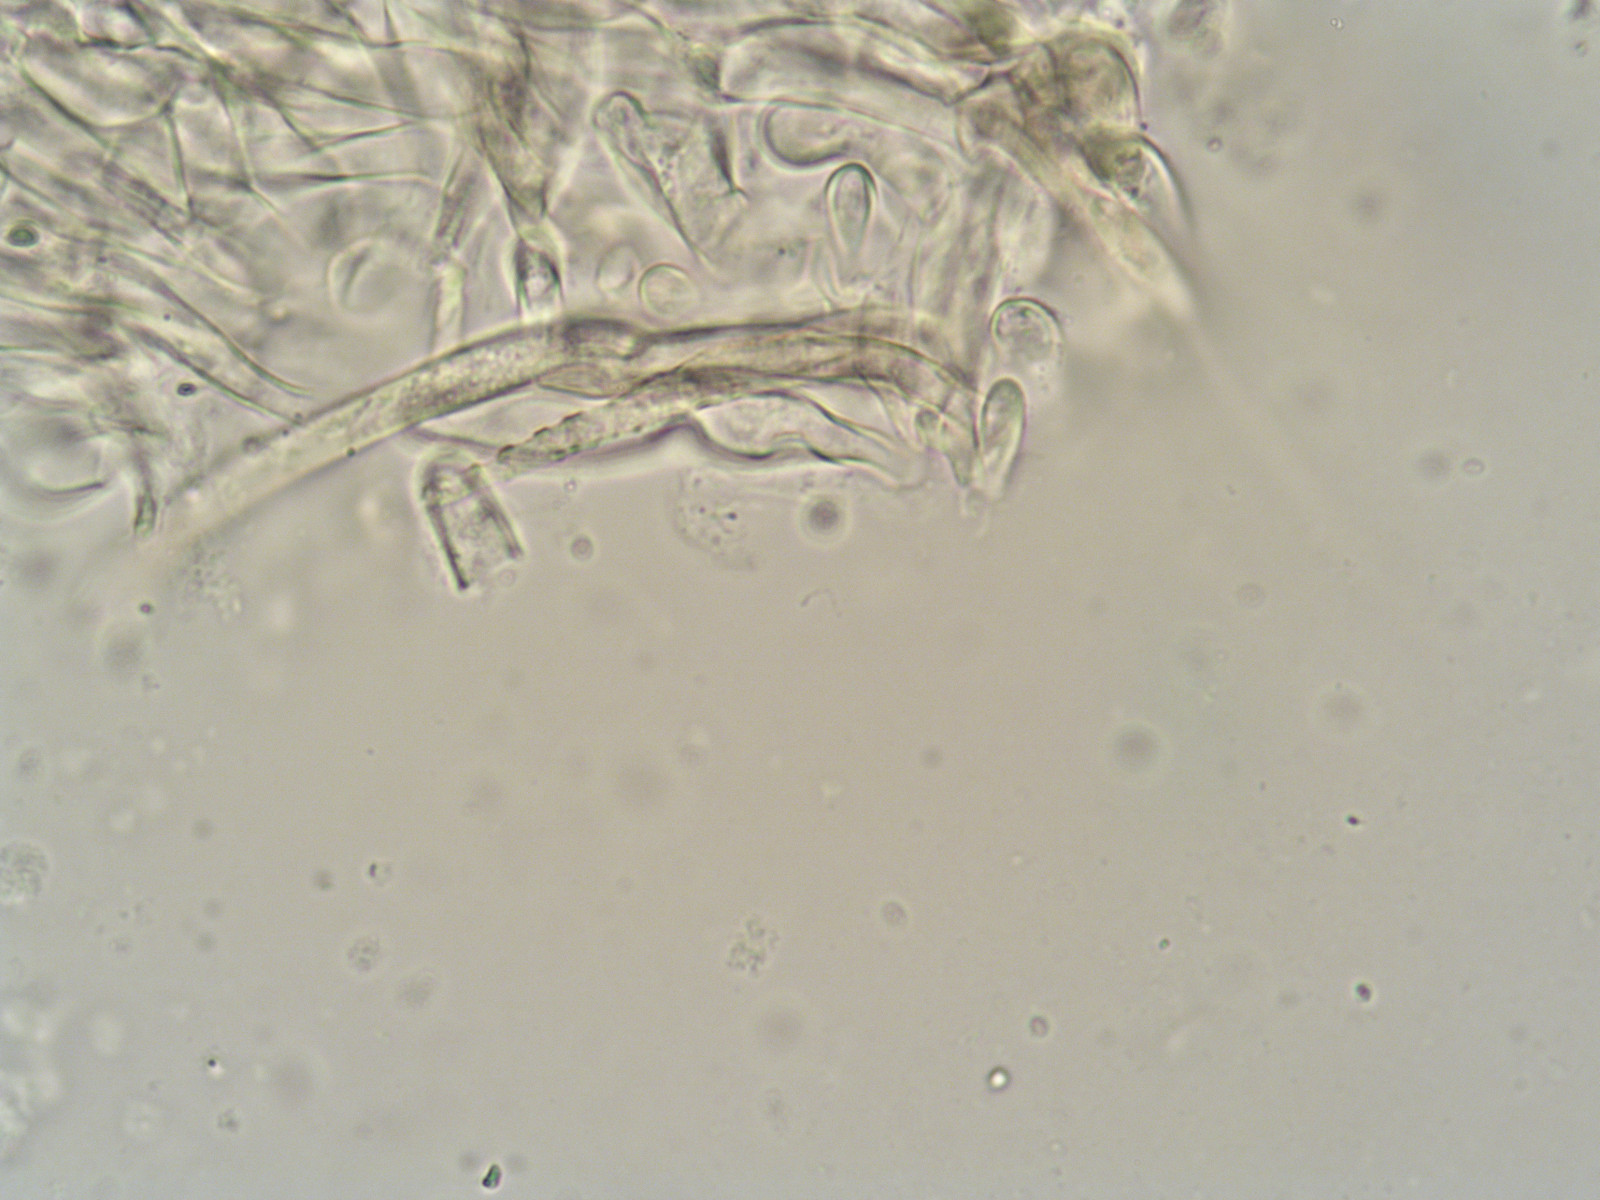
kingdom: Fungi
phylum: Basidiomycota
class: Agaricomycetes
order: Agaricales
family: Entolomataceae
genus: Entoloma
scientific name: Entoloma sericatum
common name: rank rødblad
